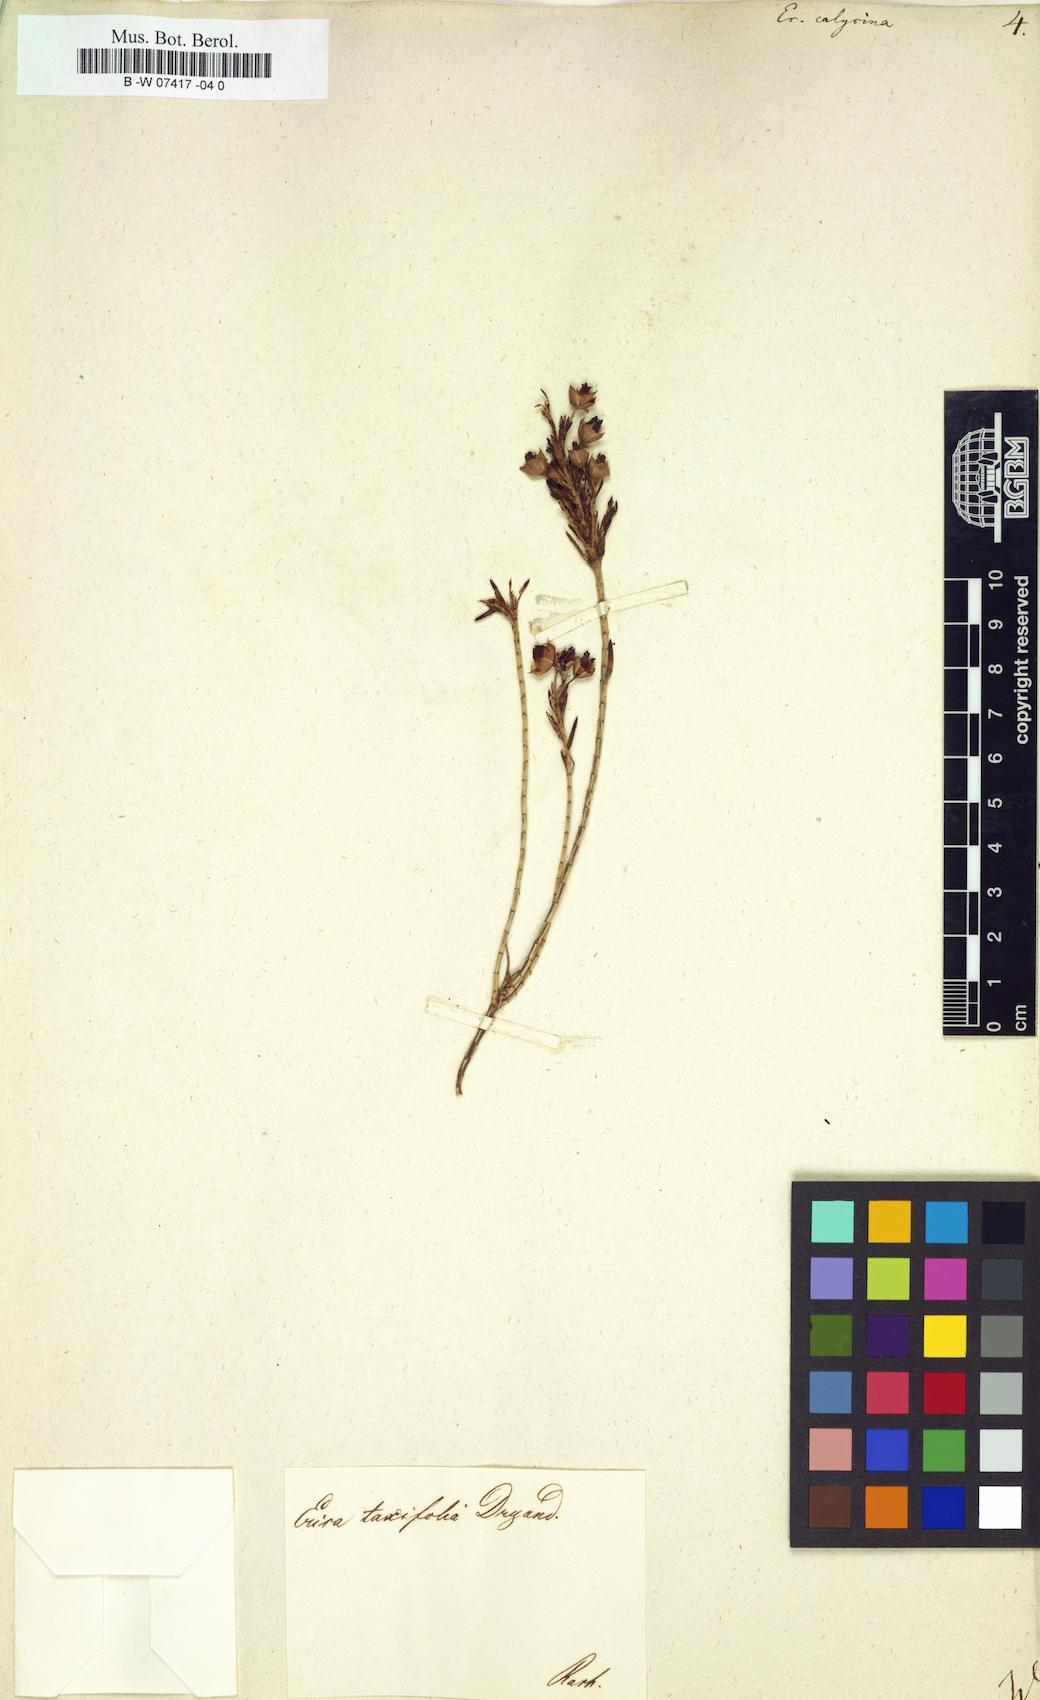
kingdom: Plantae
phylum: Tracheophyta
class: Magnoliopsida
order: Ericales
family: Ericaceae
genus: Erica
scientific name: Erica corifolia
